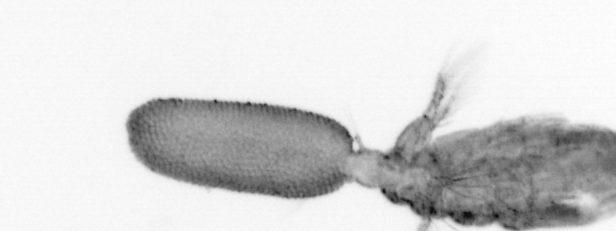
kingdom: Animalia
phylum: Arthropoda
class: Copepoda
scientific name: Copepoda
